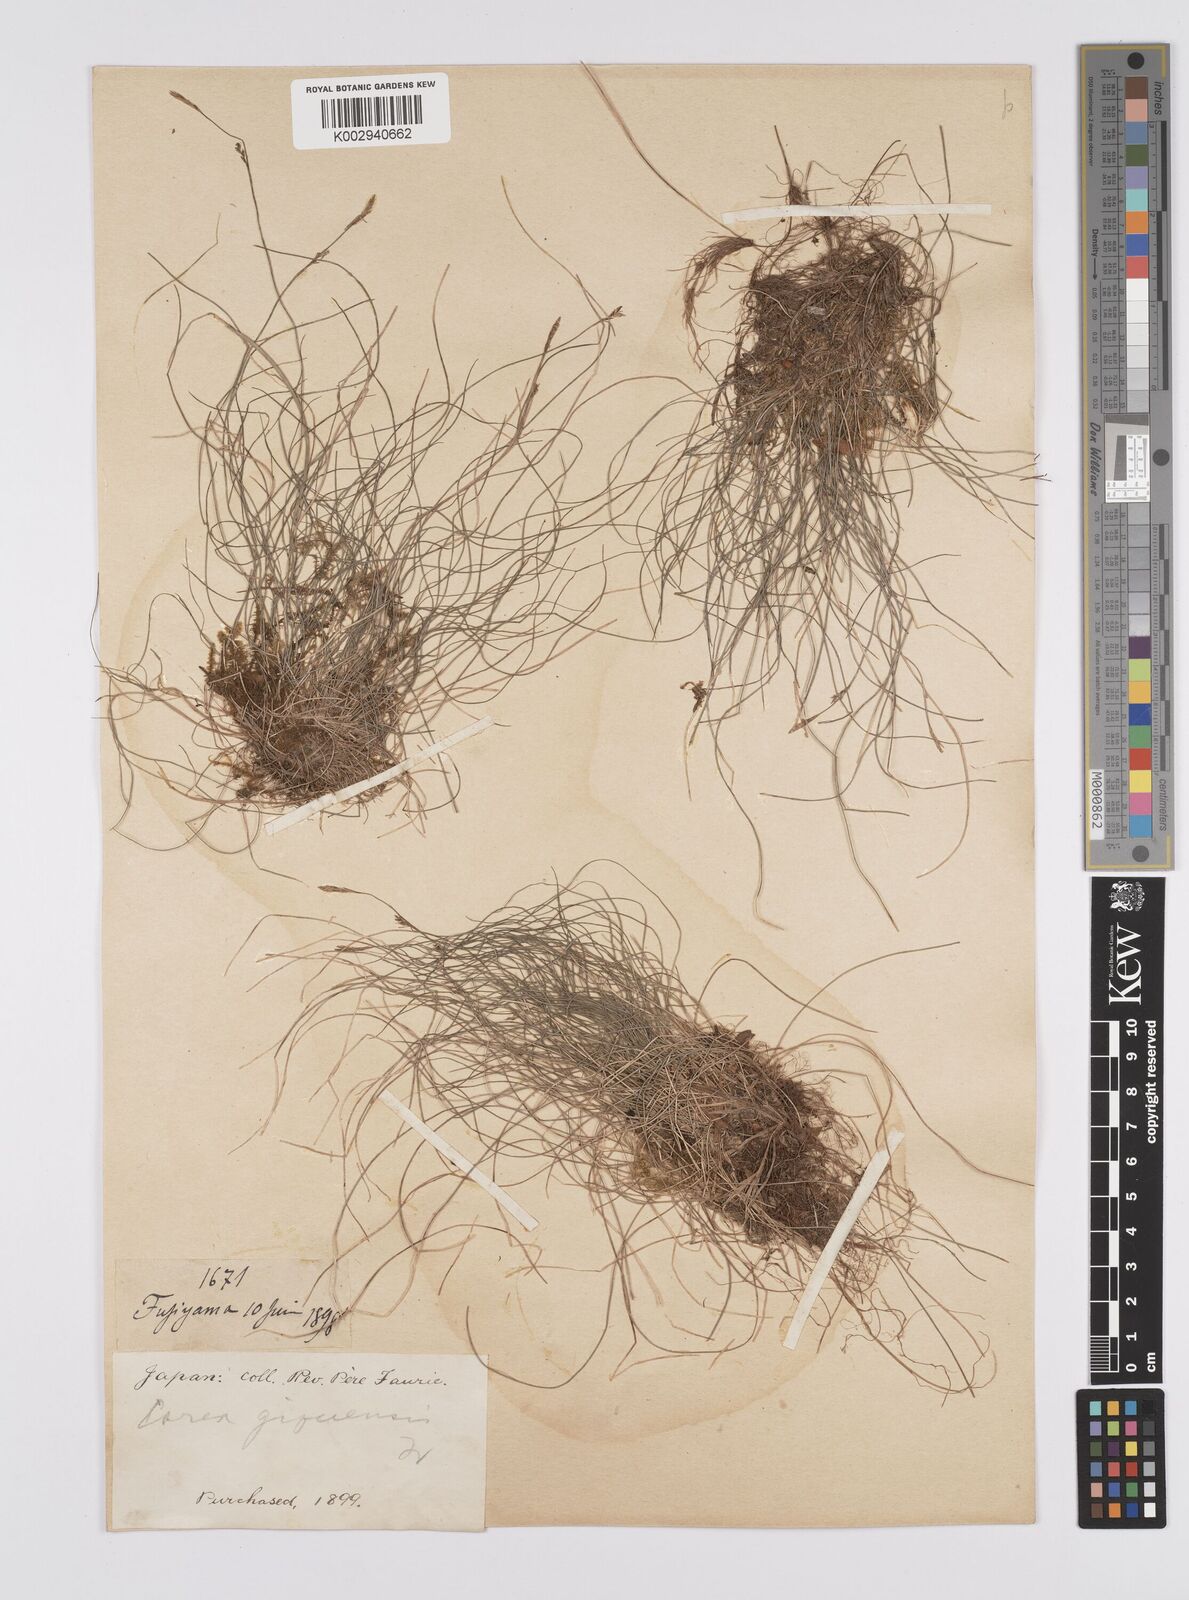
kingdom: Plantae
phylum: Tracheophyta
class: Liliopsida
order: Poales
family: Cyperaceae
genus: Carex
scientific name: Carex gifuensis
